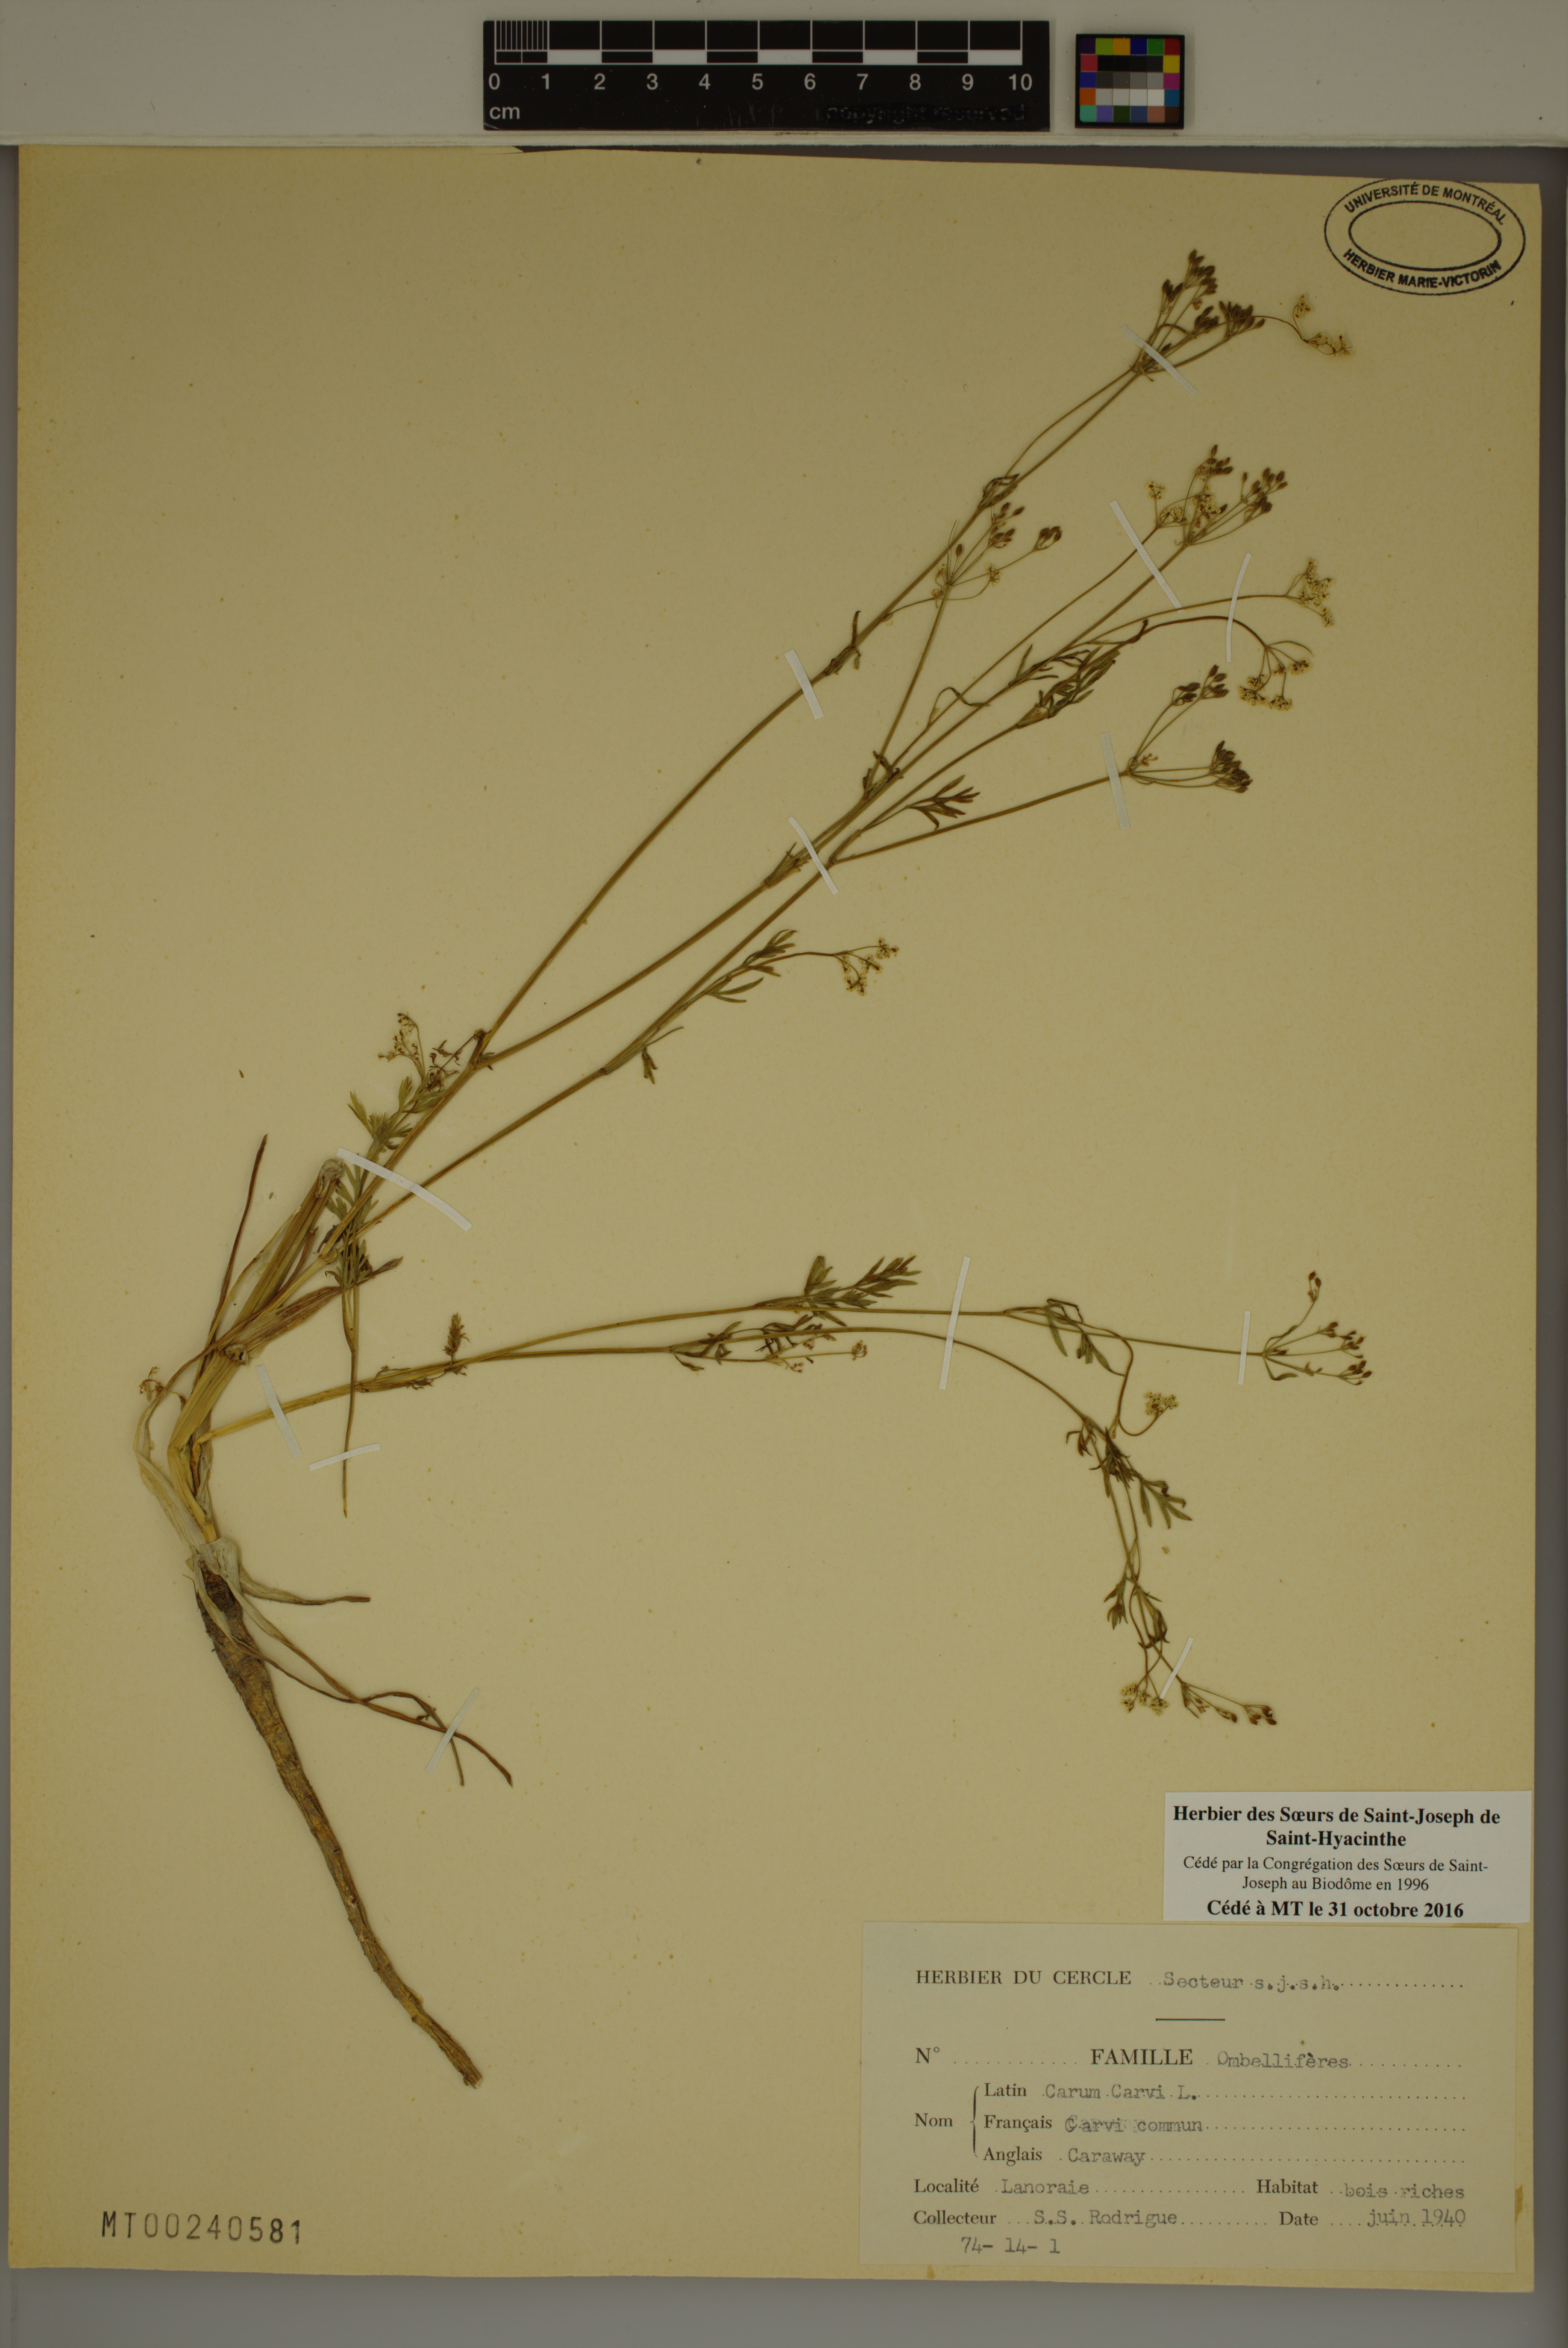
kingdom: Plantae
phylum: Tracheophyta
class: Magnoliopsida
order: Apiales
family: Apiaceae
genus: Carum
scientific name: Carum carvi
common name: Caraway
